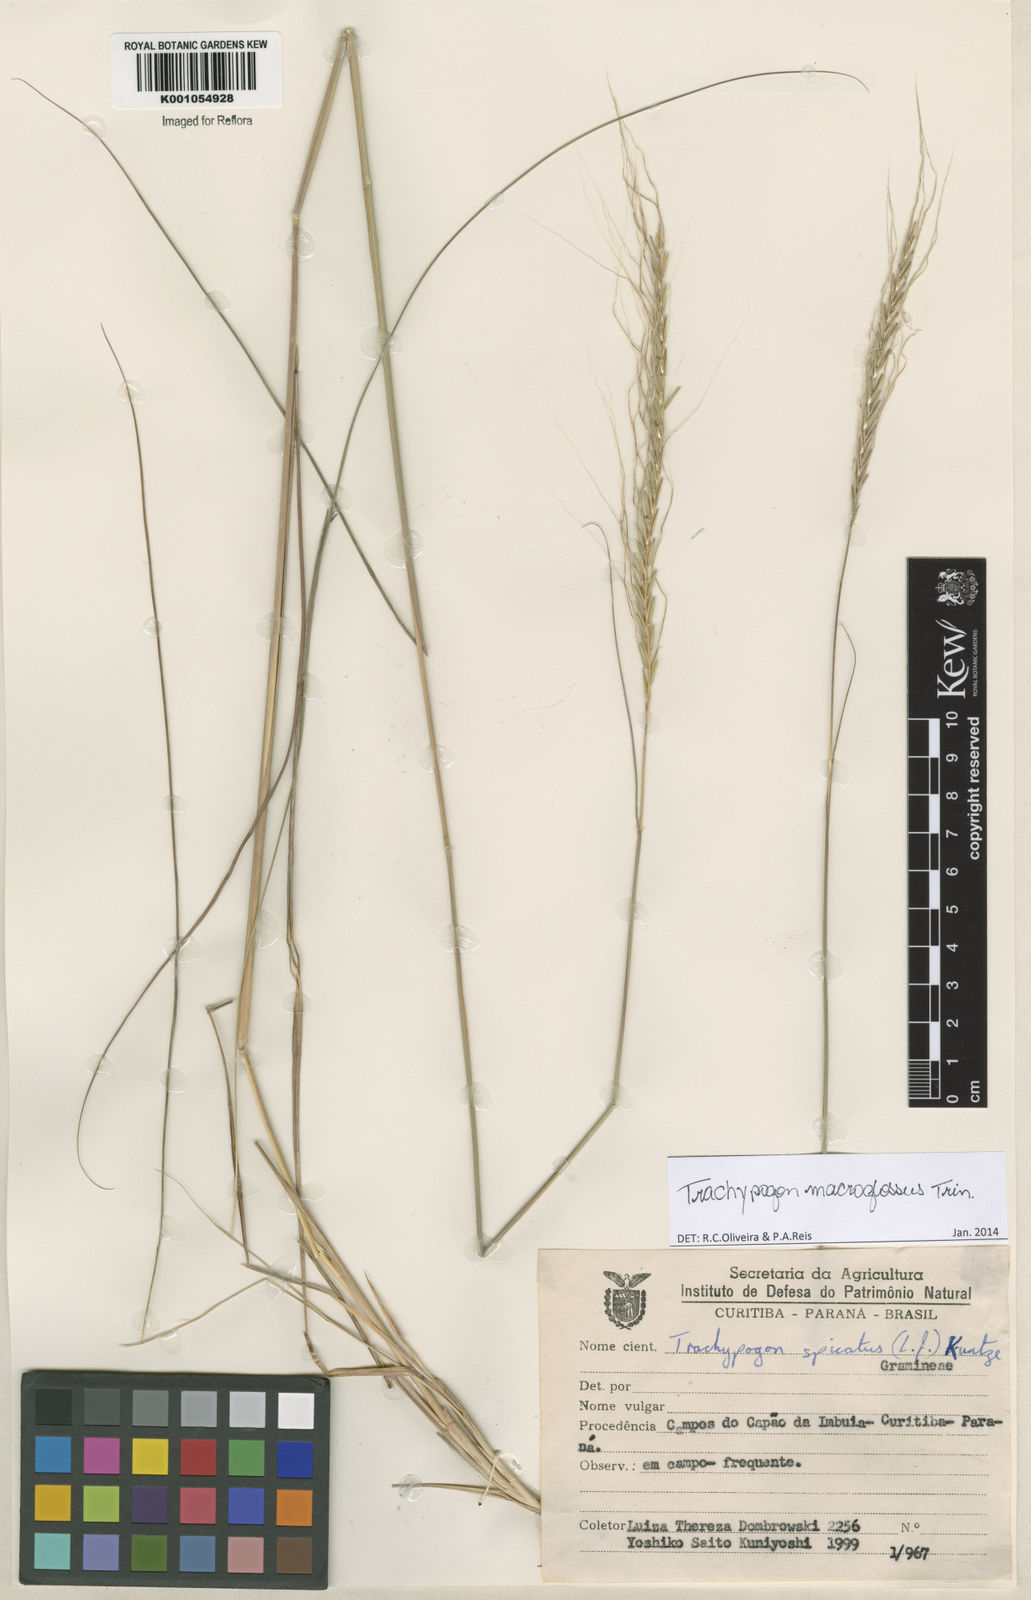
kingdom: Plantae
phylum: Tracheophyta
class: Liliopsida
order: Poales
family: Poaceae
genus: Trachypogon
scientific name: Trachypogon macroglossus
